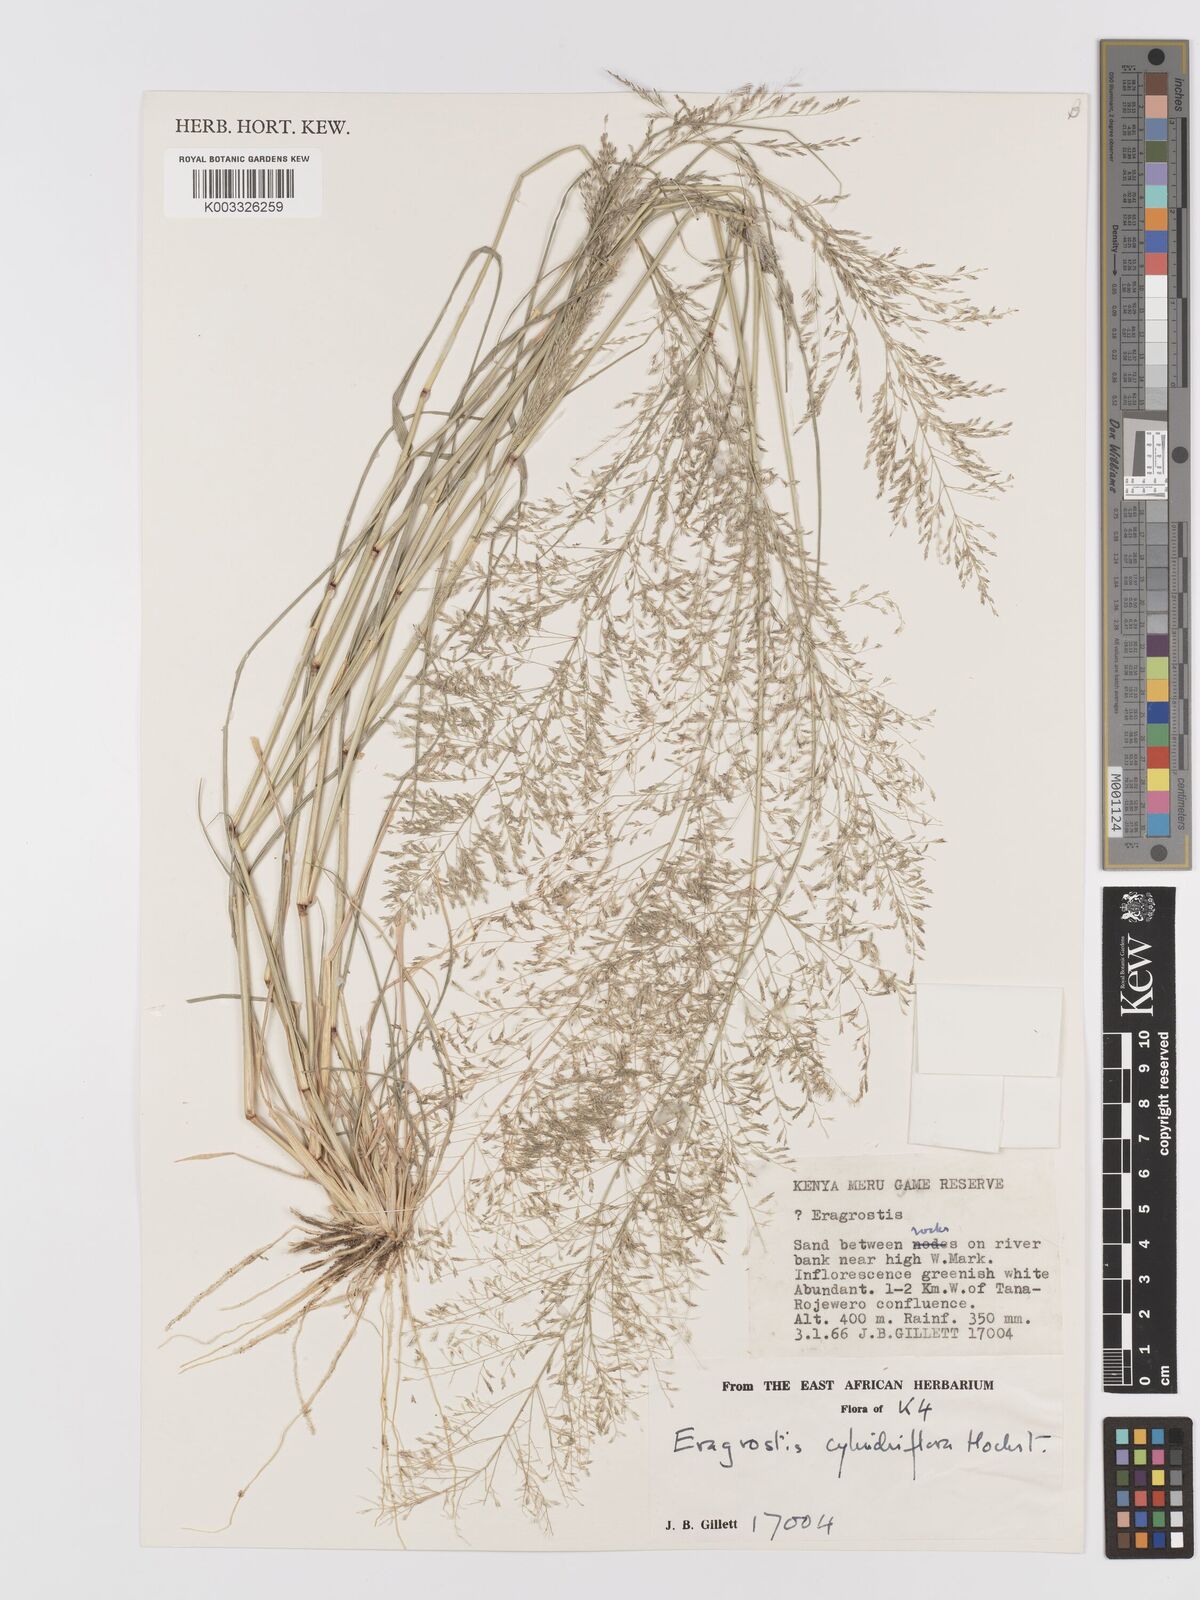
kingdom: Plantae
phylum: Tracheophyta
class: Liliopsida
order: Poales
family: Poaceae
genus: Eragrostis
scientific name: Eragrostis cylindriflora
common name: Cylinderflower lovegrass
